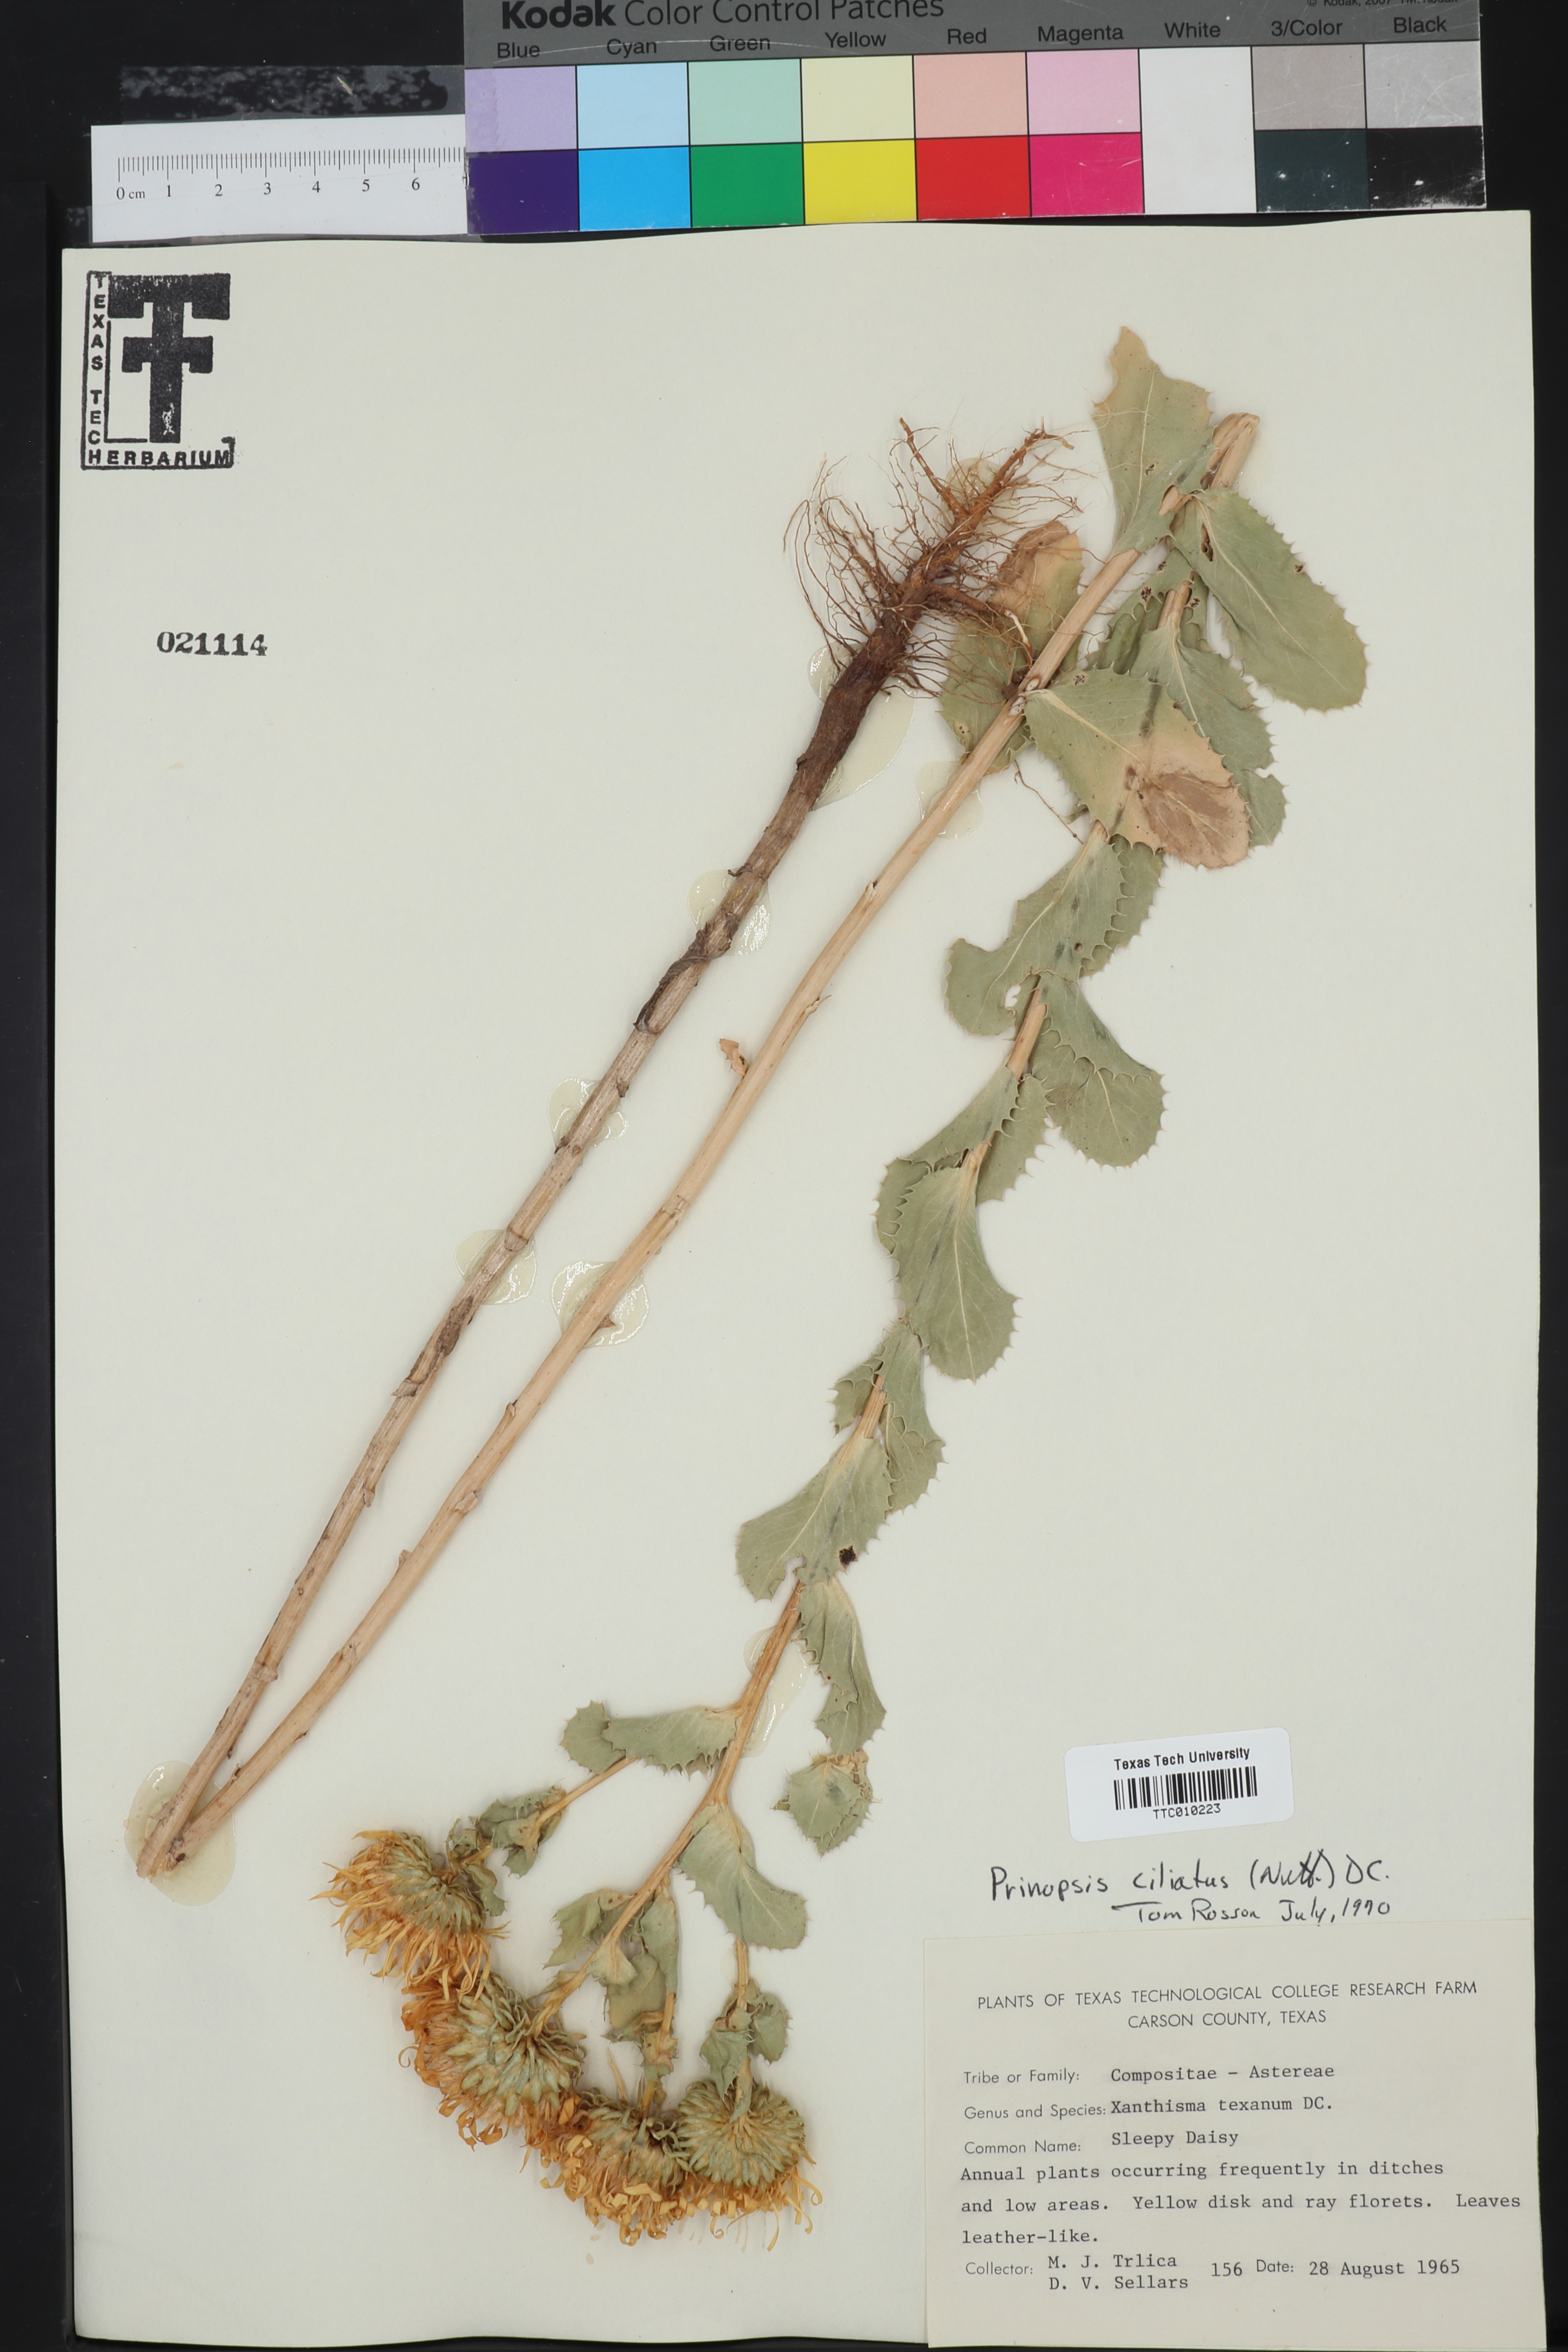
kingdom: Plantae
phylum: Tracheophyta
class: Magnoliopsida
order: Asterales
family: Asteraceae
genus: Grindelia
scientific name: Grindelia ciliata
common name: Goldenweed
